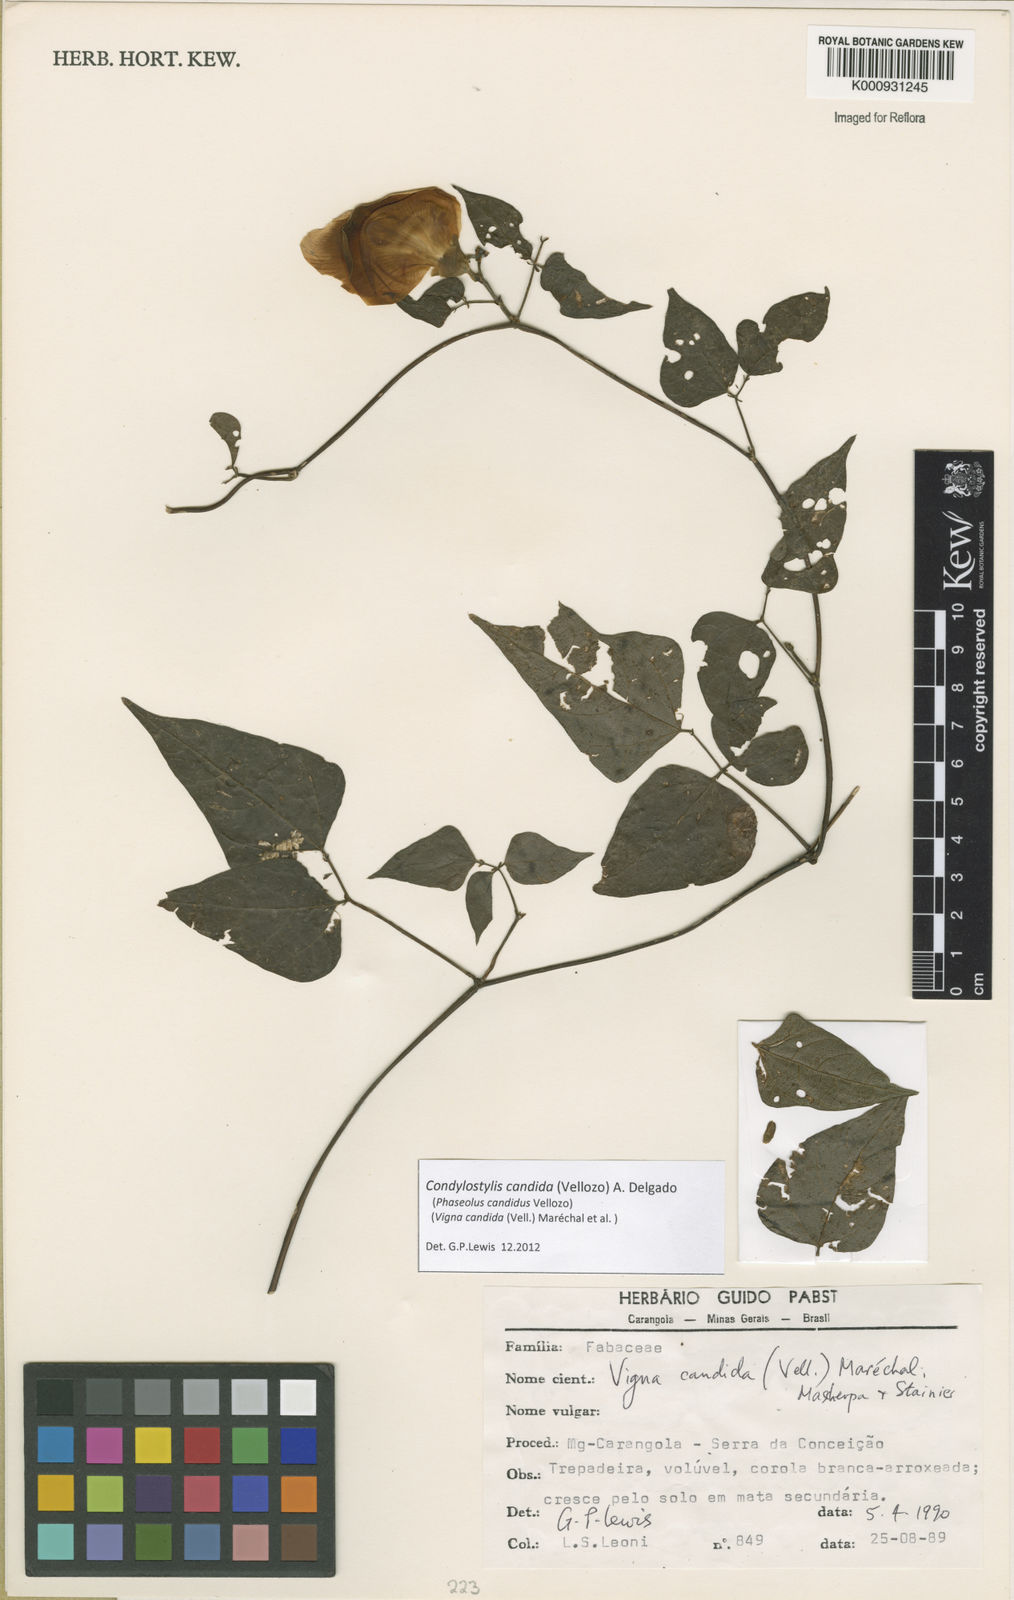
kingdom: Plantae
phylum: Tracheophyta
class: Magnoliopsida
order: Fabales
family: Fabaceae
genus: Condylostylis
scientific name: Condylostylis candida
